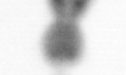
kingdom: Animalia
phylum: Arthropoda
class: Copepoda
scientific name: Copepoda
